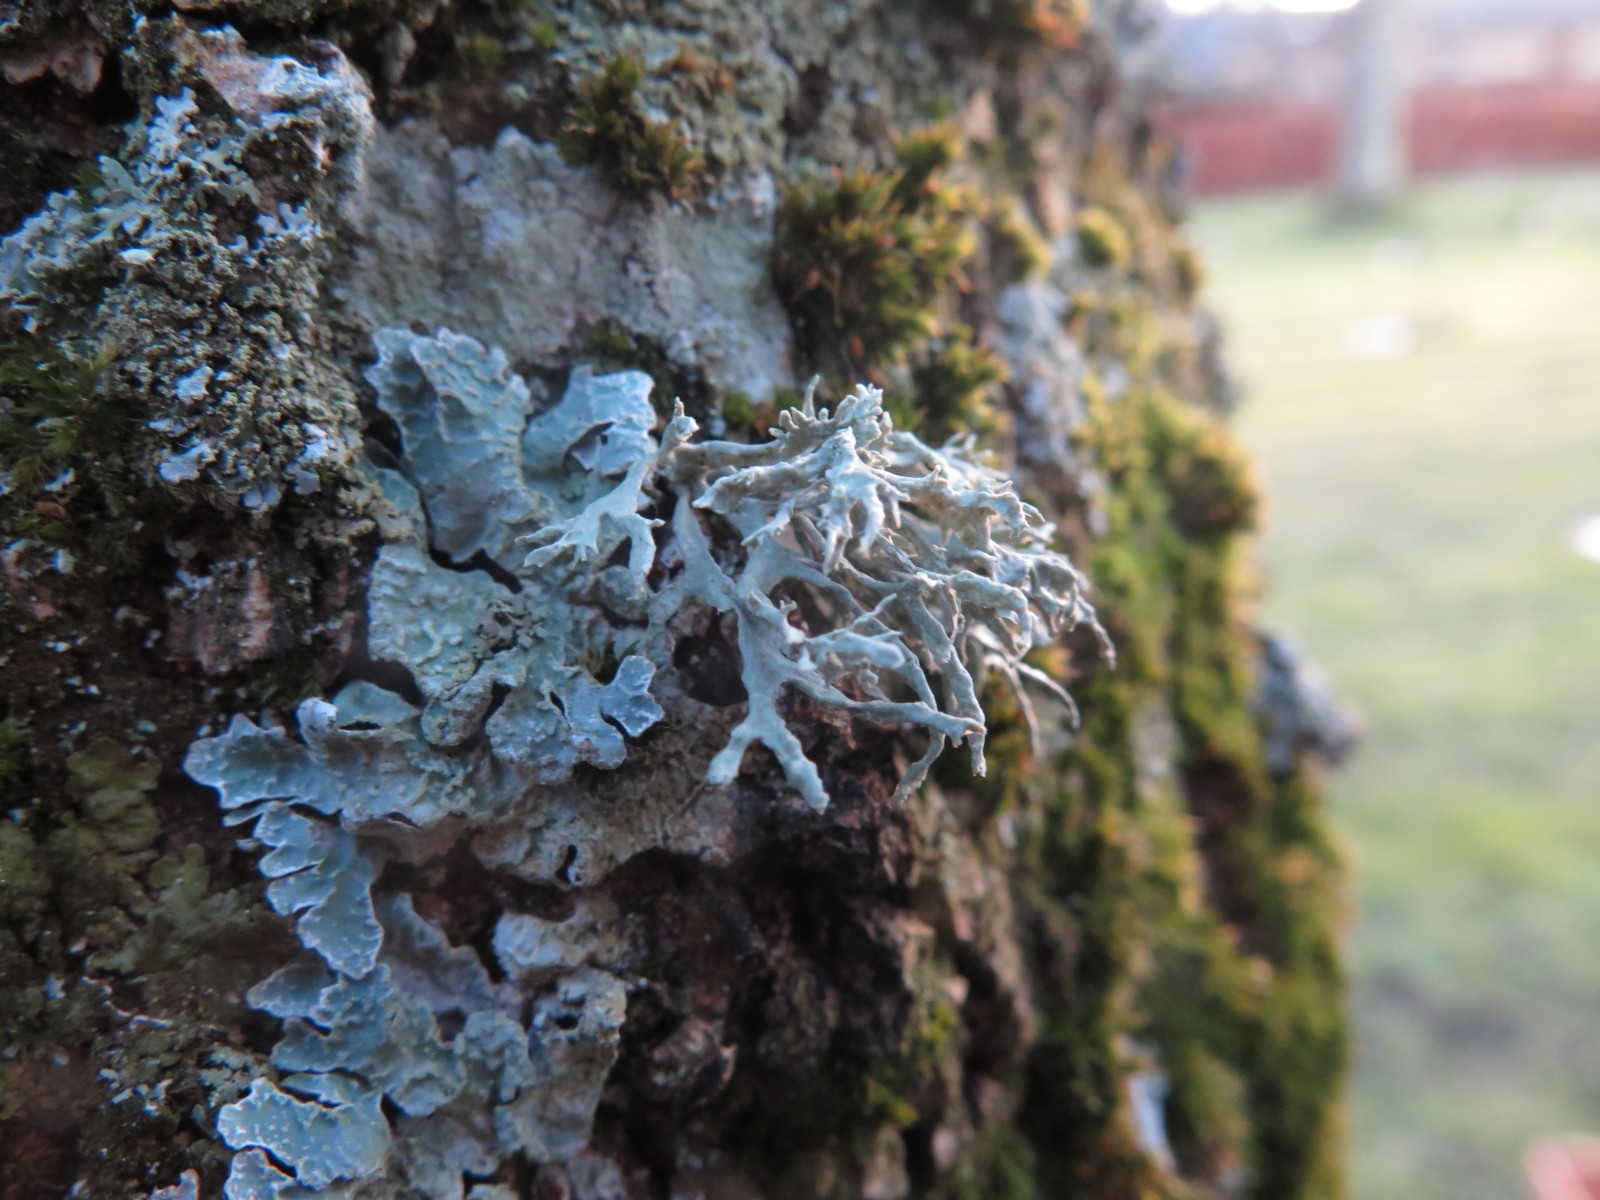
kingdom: Fungi
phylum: Ascomycota
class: Lecanoromycetes
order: Lecanorales
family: Parmeliaceae
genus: Evernia
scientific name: Evernia prunastri
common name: almindelig slåenlav
